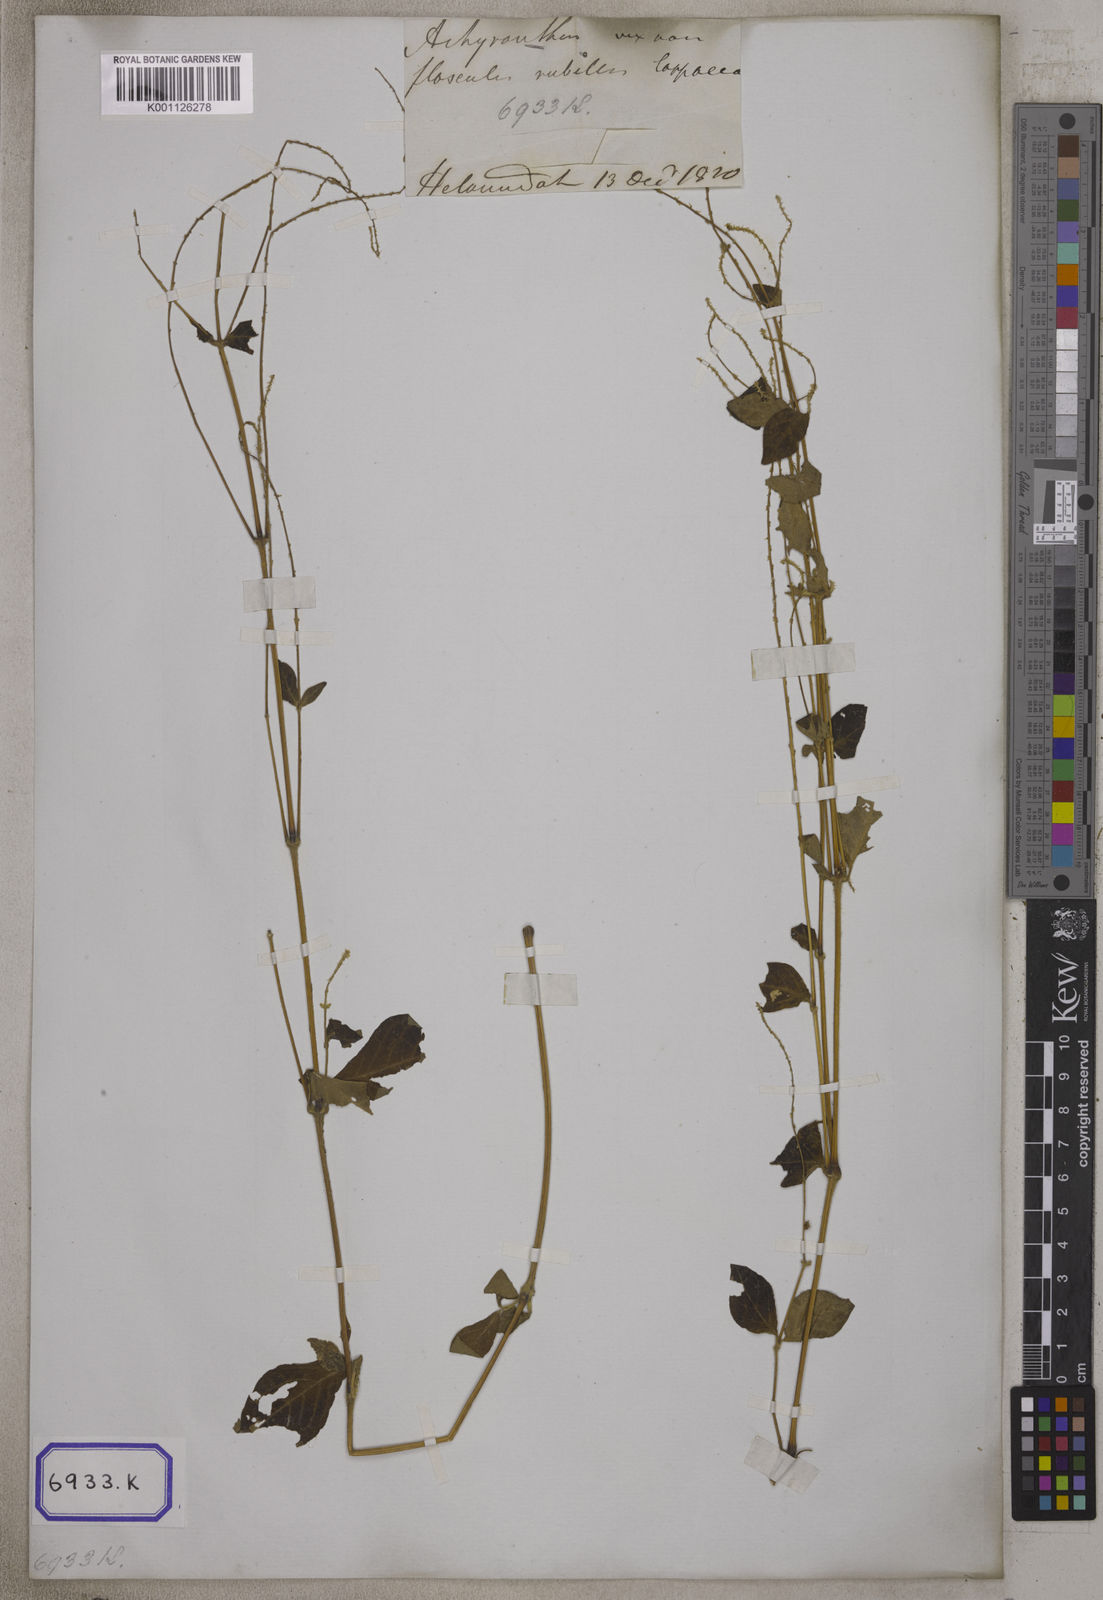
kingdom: Plantae
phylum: Tracheophyta
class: Magnoliopsida
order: Caryophyllales
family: Amaranthaceae
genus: Pupalia
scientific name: Pupalia lappacea
